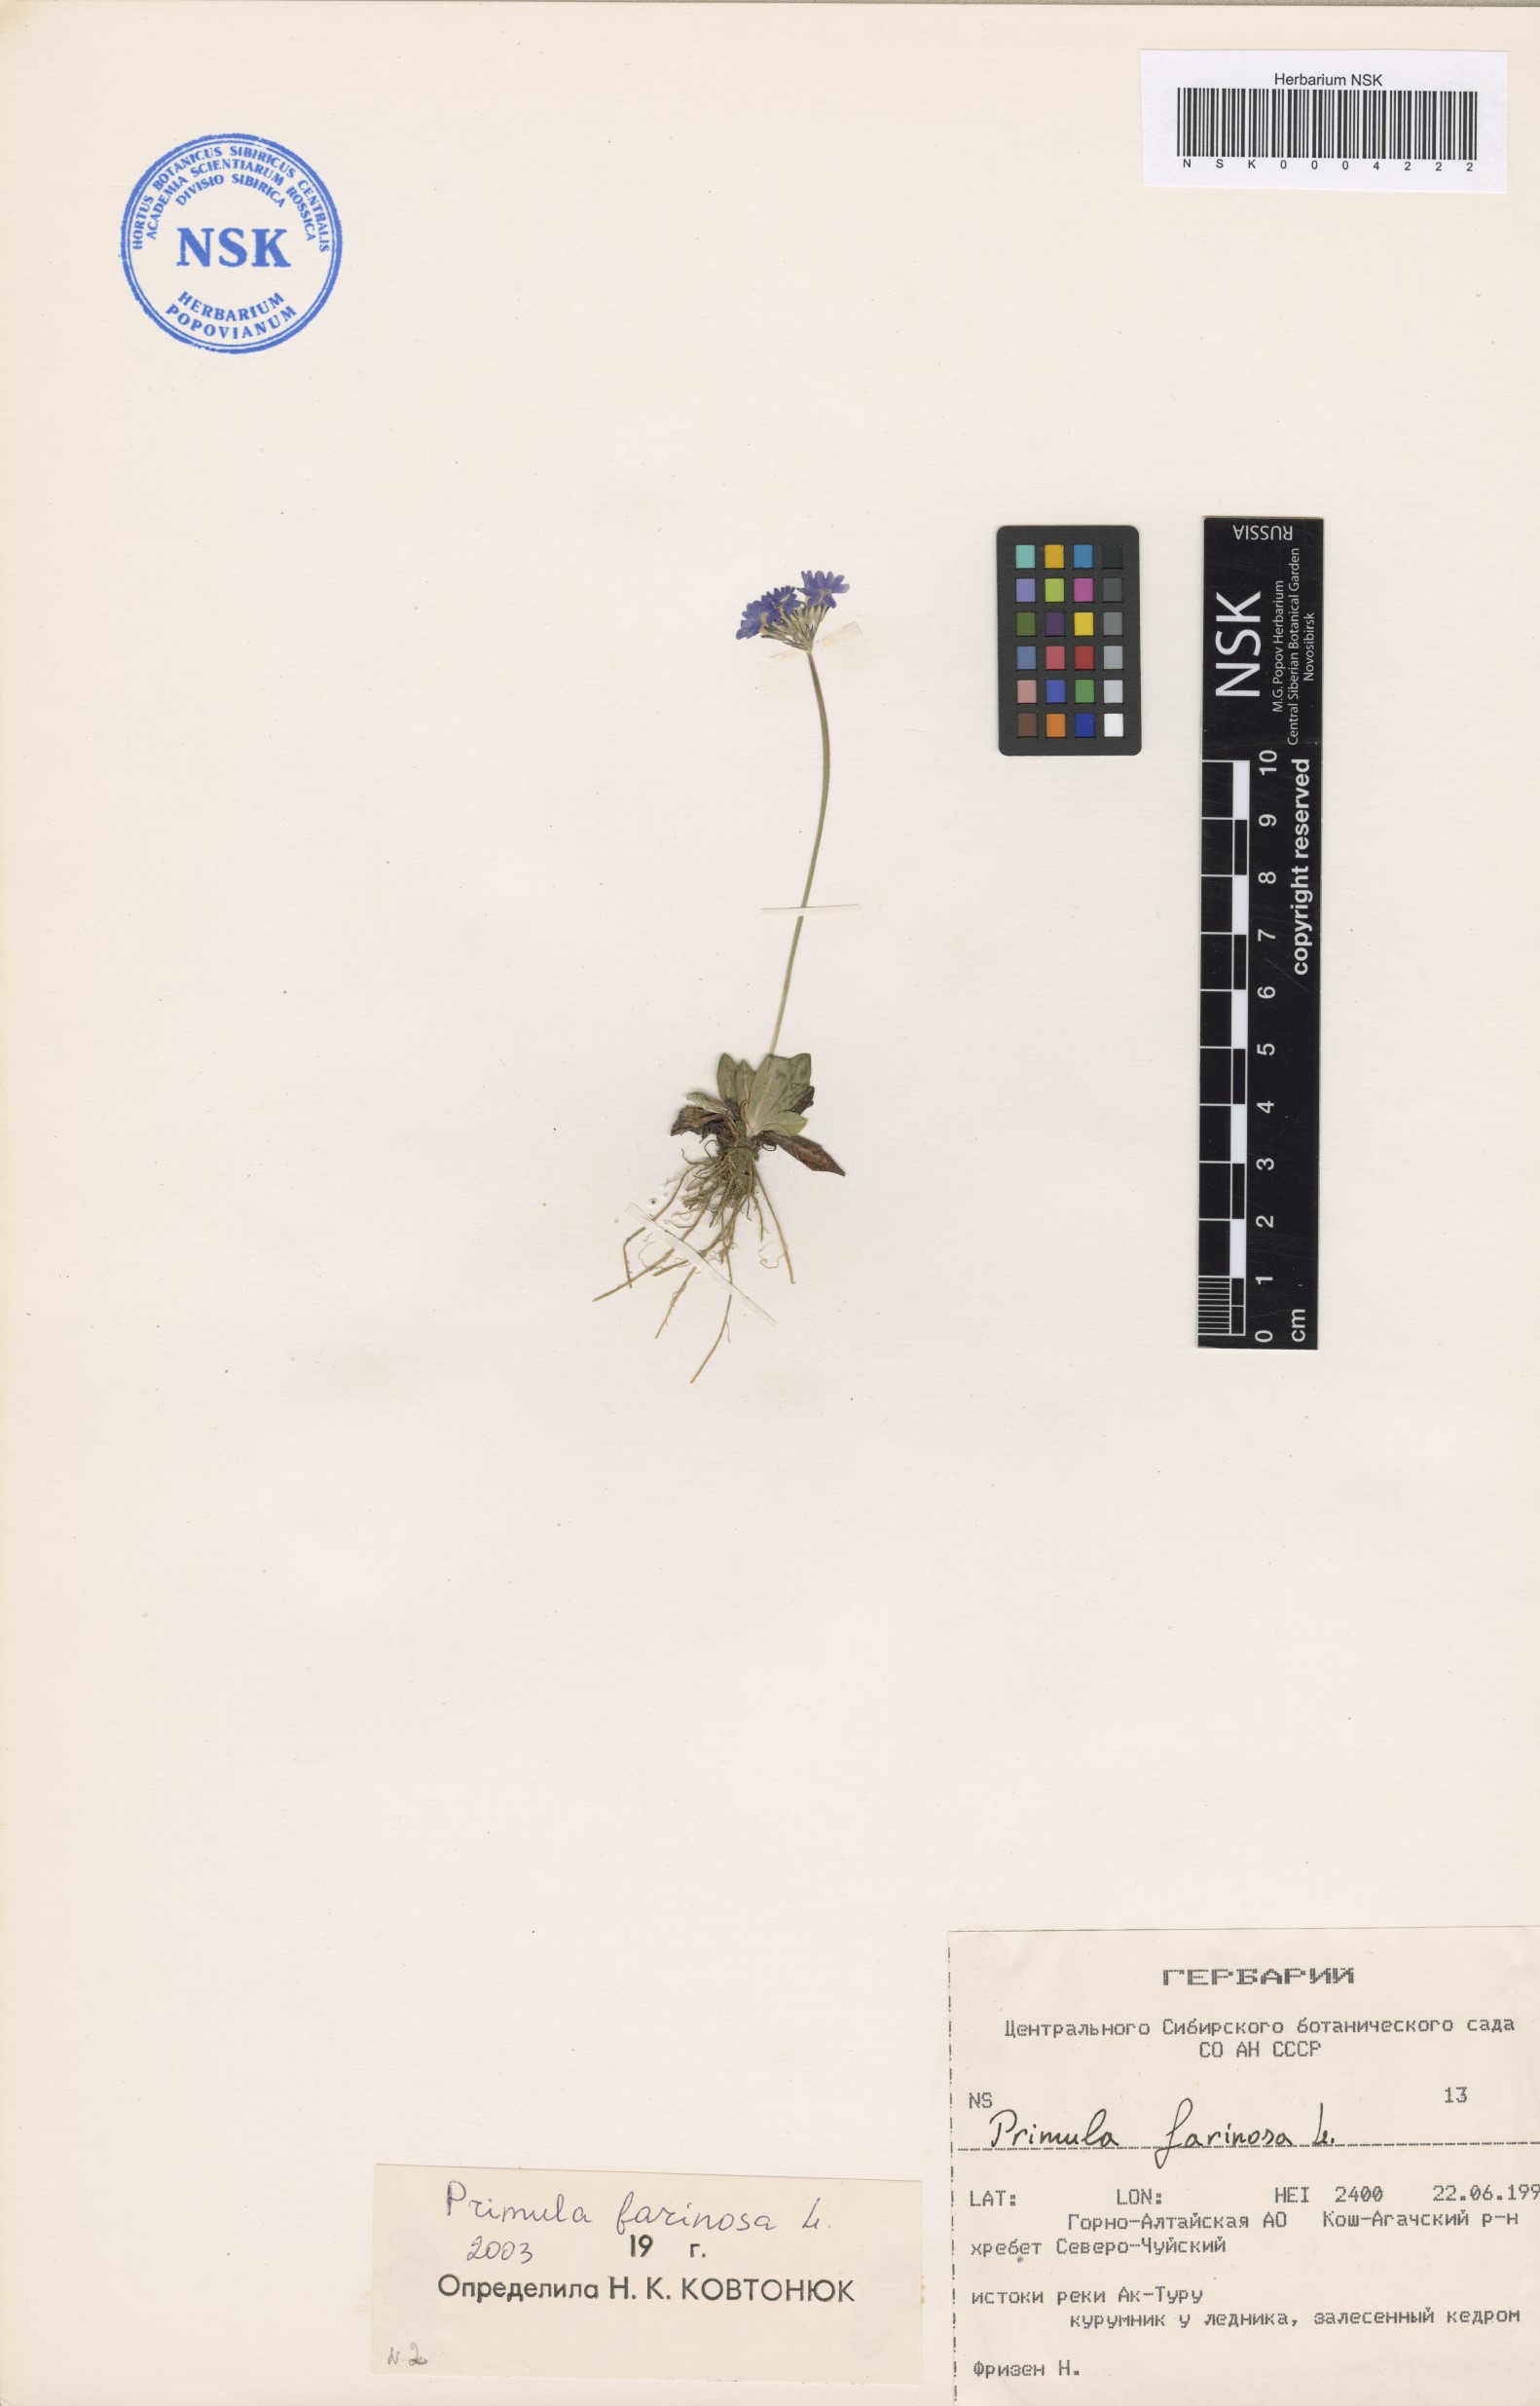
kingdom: Plantae
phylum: Tracheophyta
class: Magnoliopsida
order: Ericales
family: Primulaceae
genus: Primula
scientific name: Primula farinosa
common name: Bird's-eye primrose
